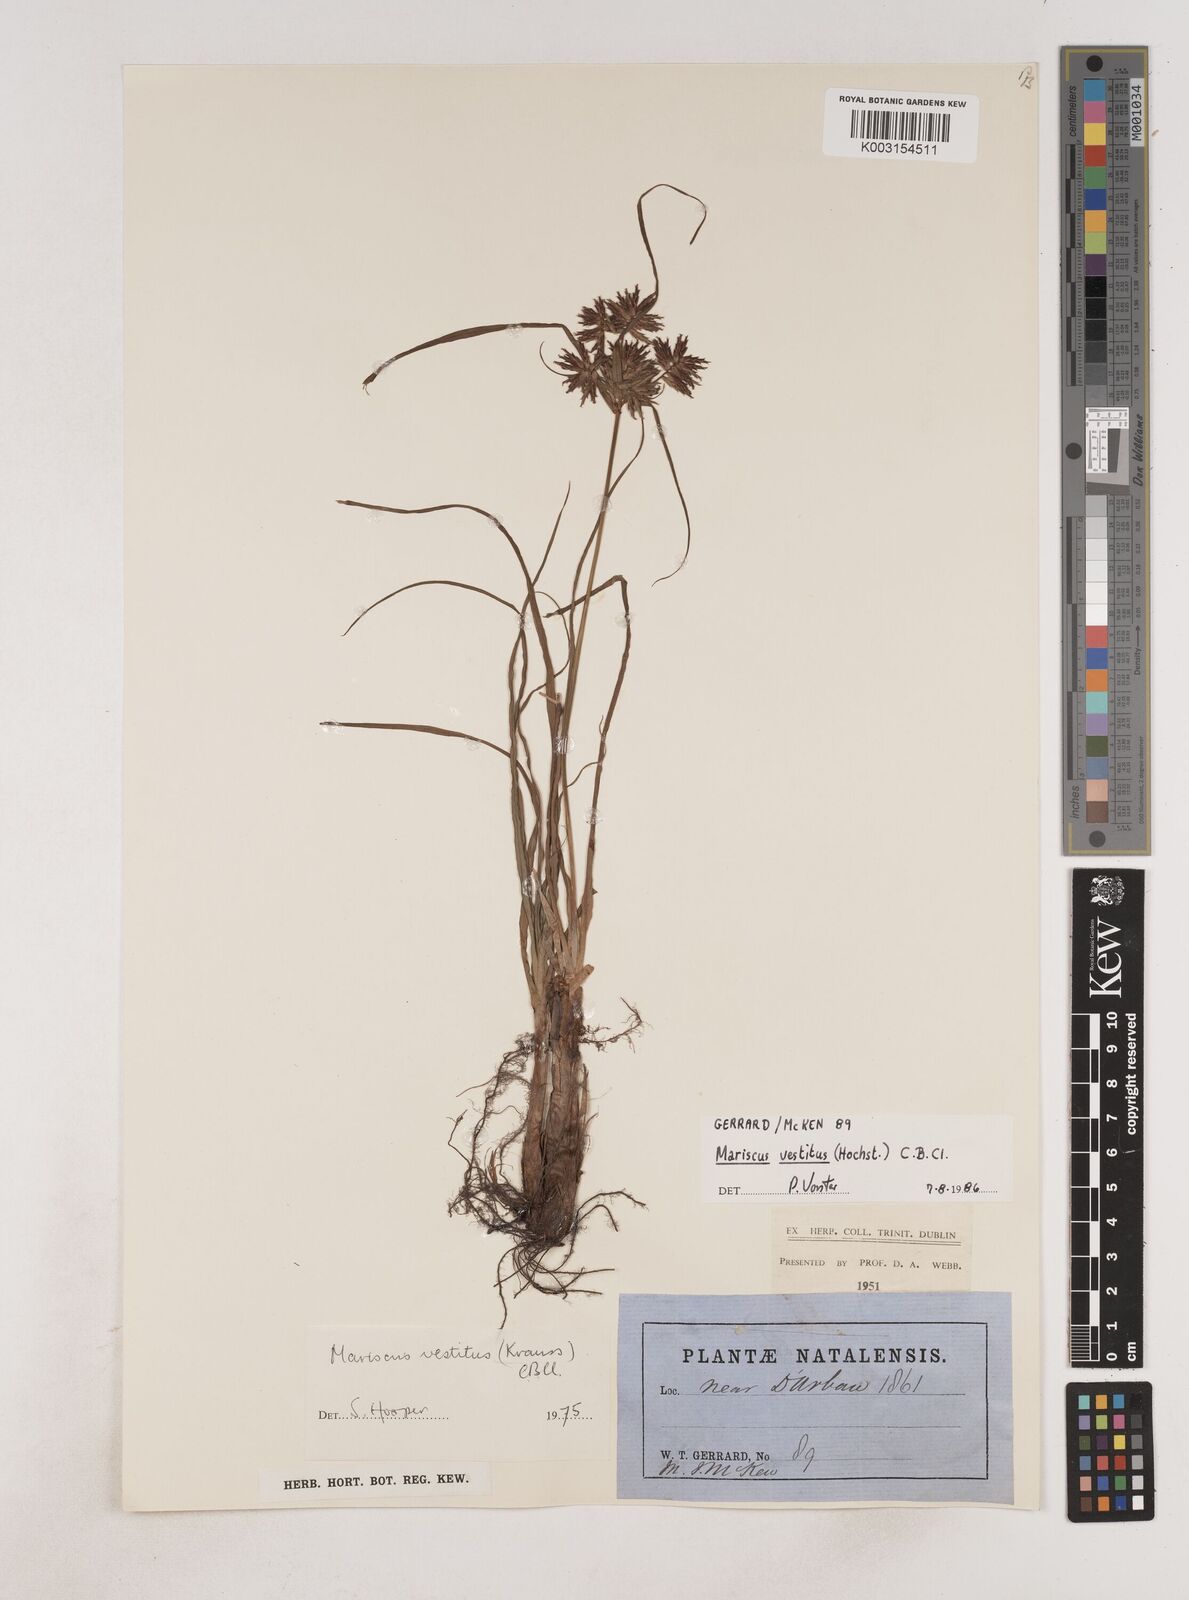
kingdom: Plantae
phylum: Tracheophyta
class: Liliopsida
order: Poales
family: Cyperaceae
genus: Cyperus
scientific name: Cyperus vestitus
